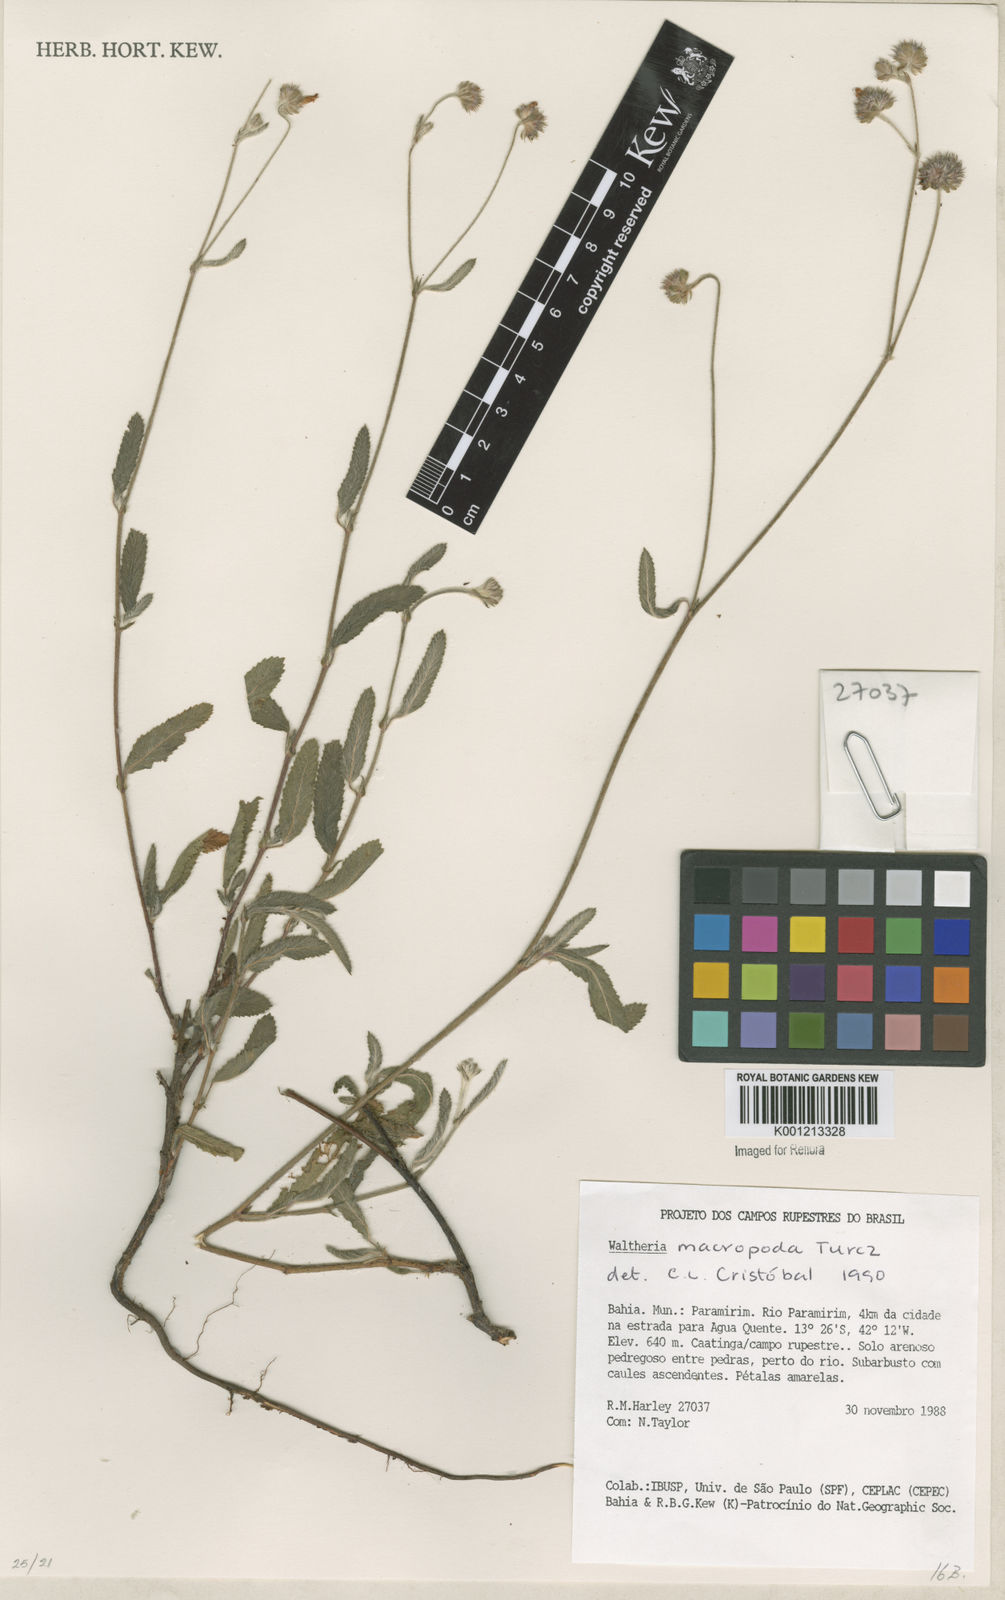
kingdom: Plantae
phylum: Tracheophyta
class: Magnoliopsida
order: Malvales
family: Malvaceae
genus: Waltheria
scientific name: Waltheria bracteosa
